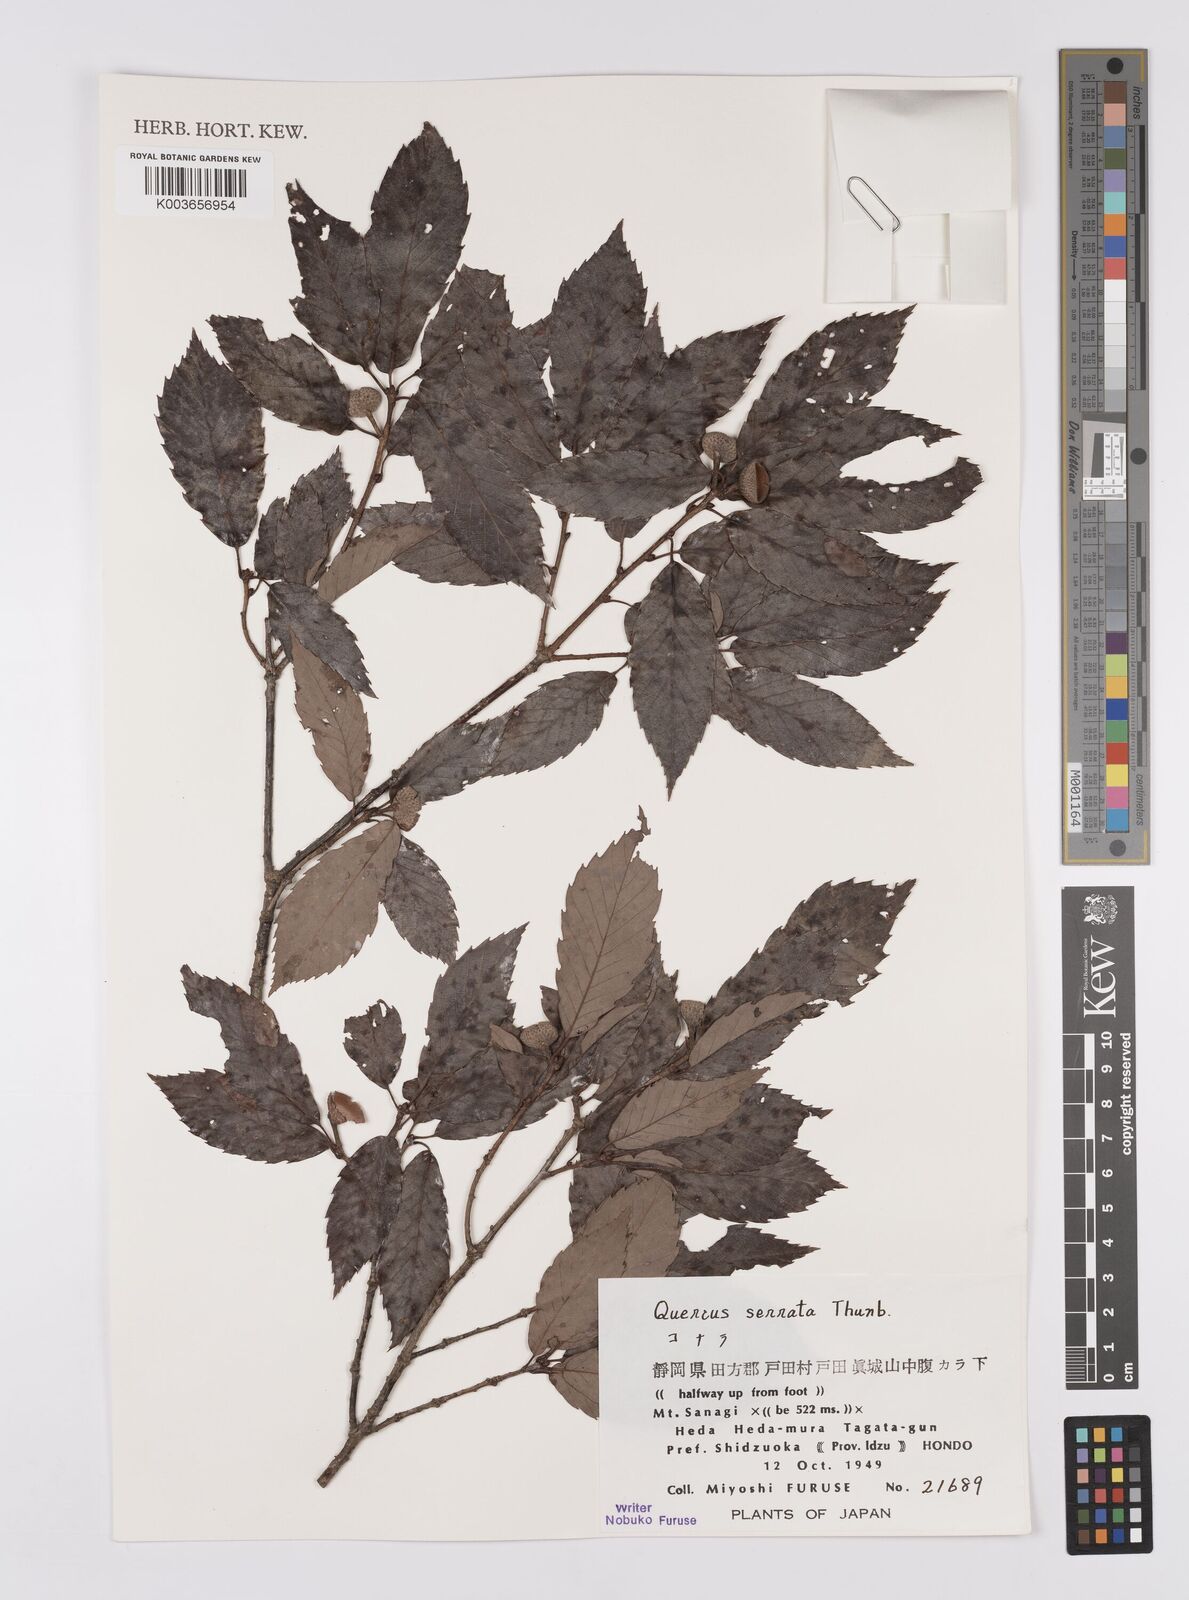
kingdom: Plantae
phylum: Tracheophyta
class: Magnoliopsida
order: Fagales
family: Fagaceae
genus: Quercus
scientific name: Quercus serrata
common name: Bao li
